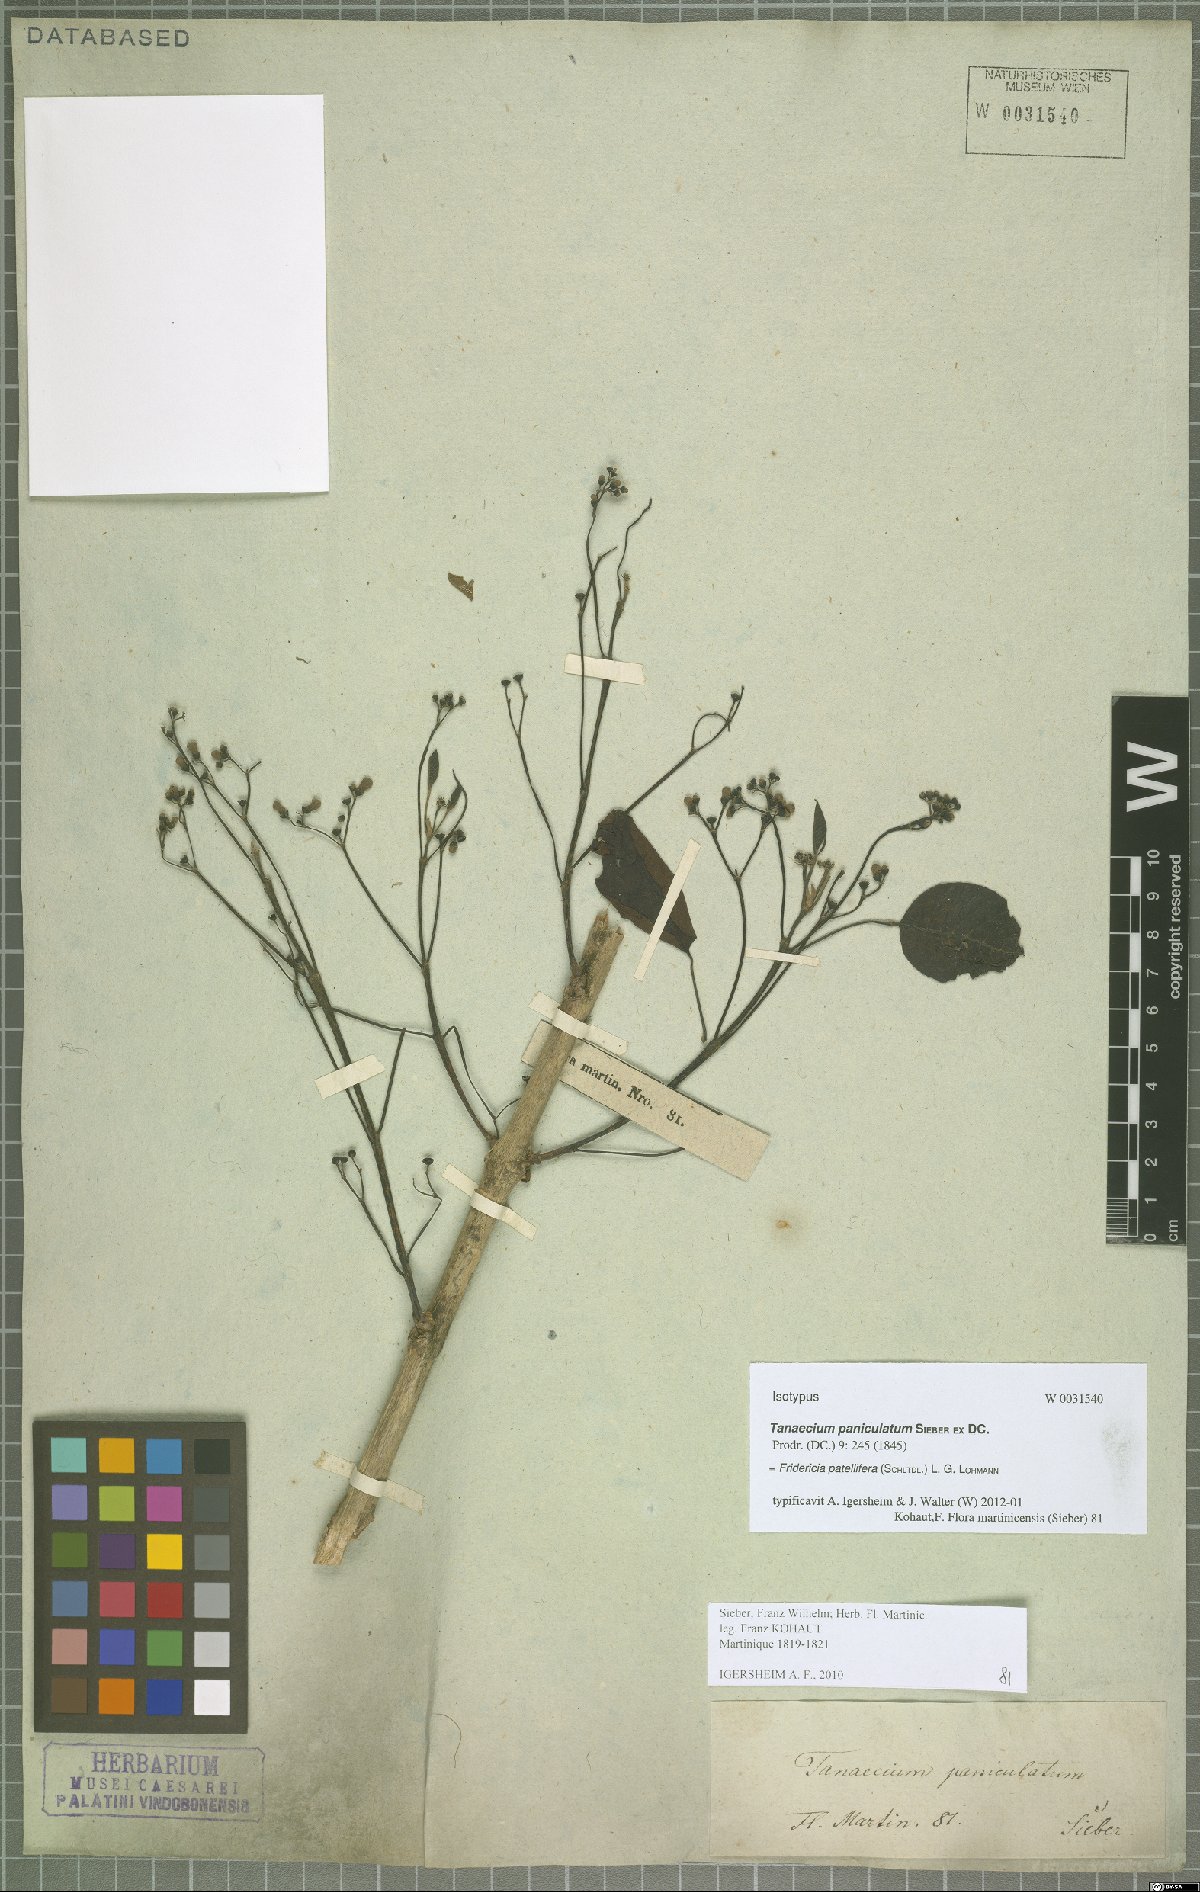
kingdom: Plantae
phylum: Tracheophyta
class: Magnoliopsida
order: Lamiales
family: Bignoniaceae
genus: Fridericia
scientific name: Fridericia patellifera
